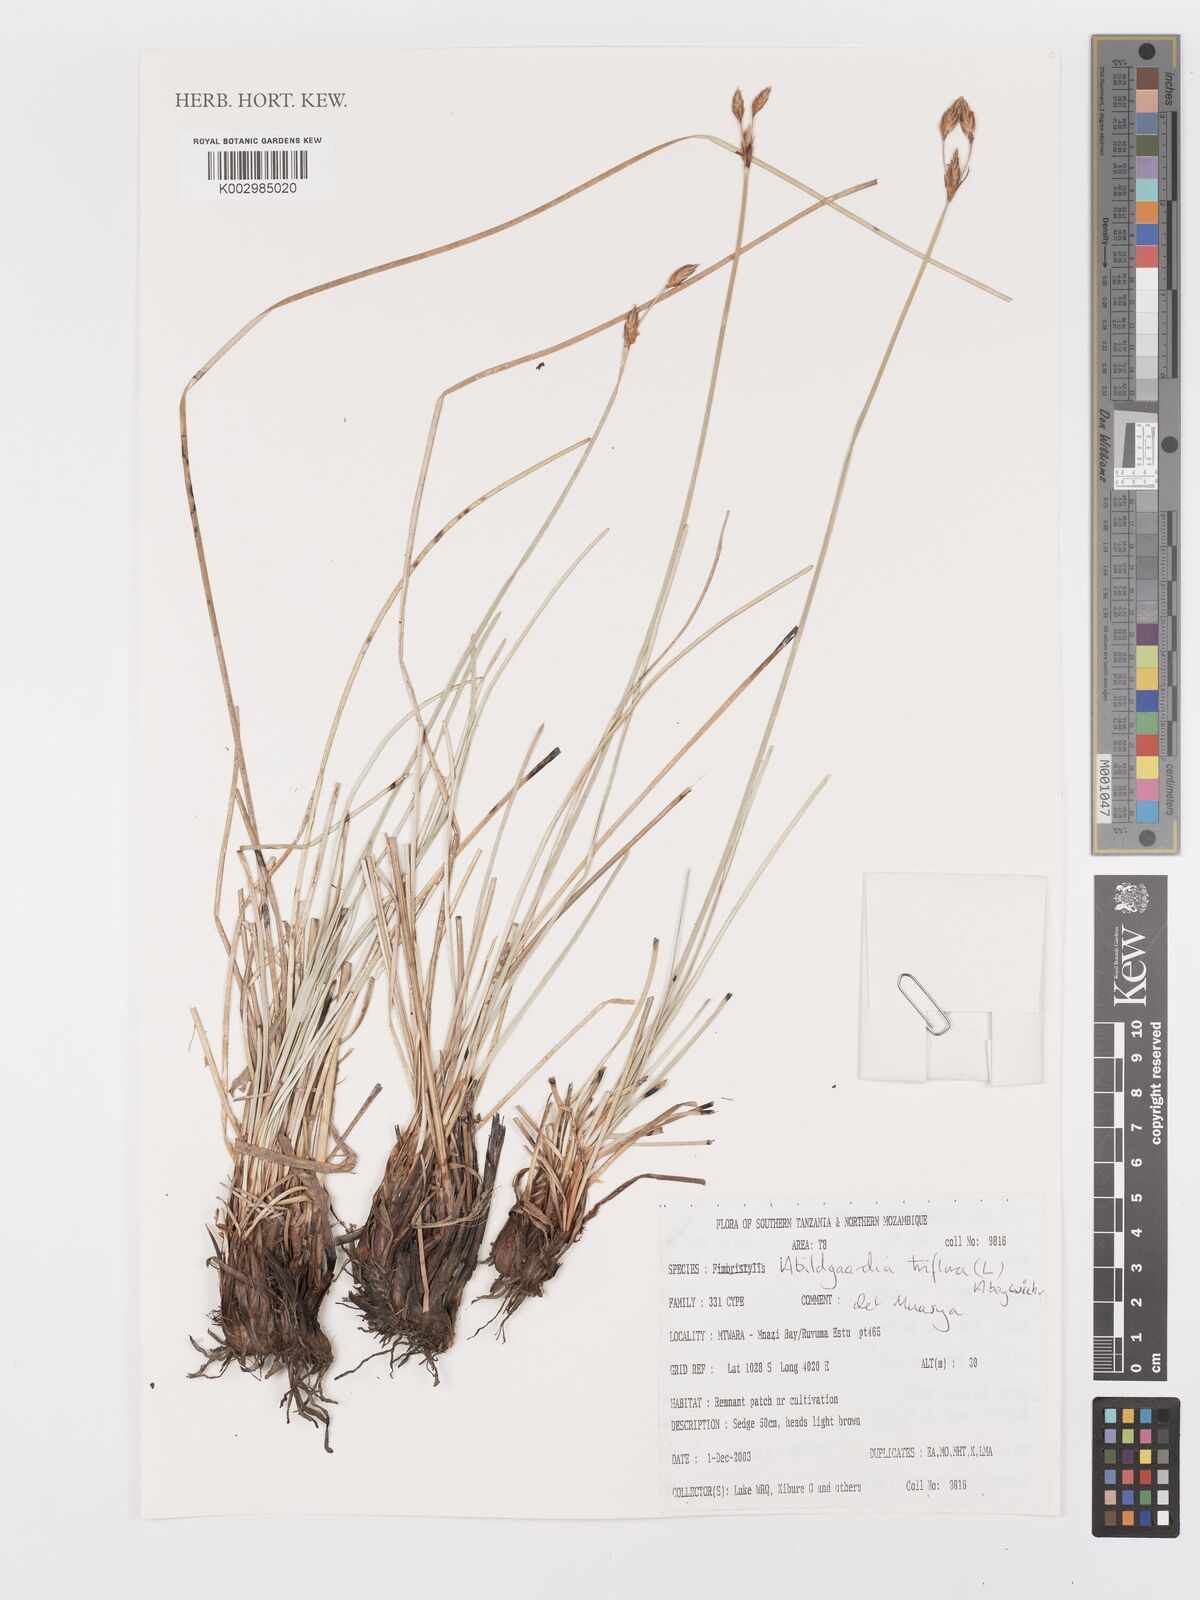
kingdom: Plantae
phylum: Tracheophyta
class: Liliopsida
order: Poales
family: Cyperaceae
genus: Abildgaardia
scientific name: Abildgaardia triflora
